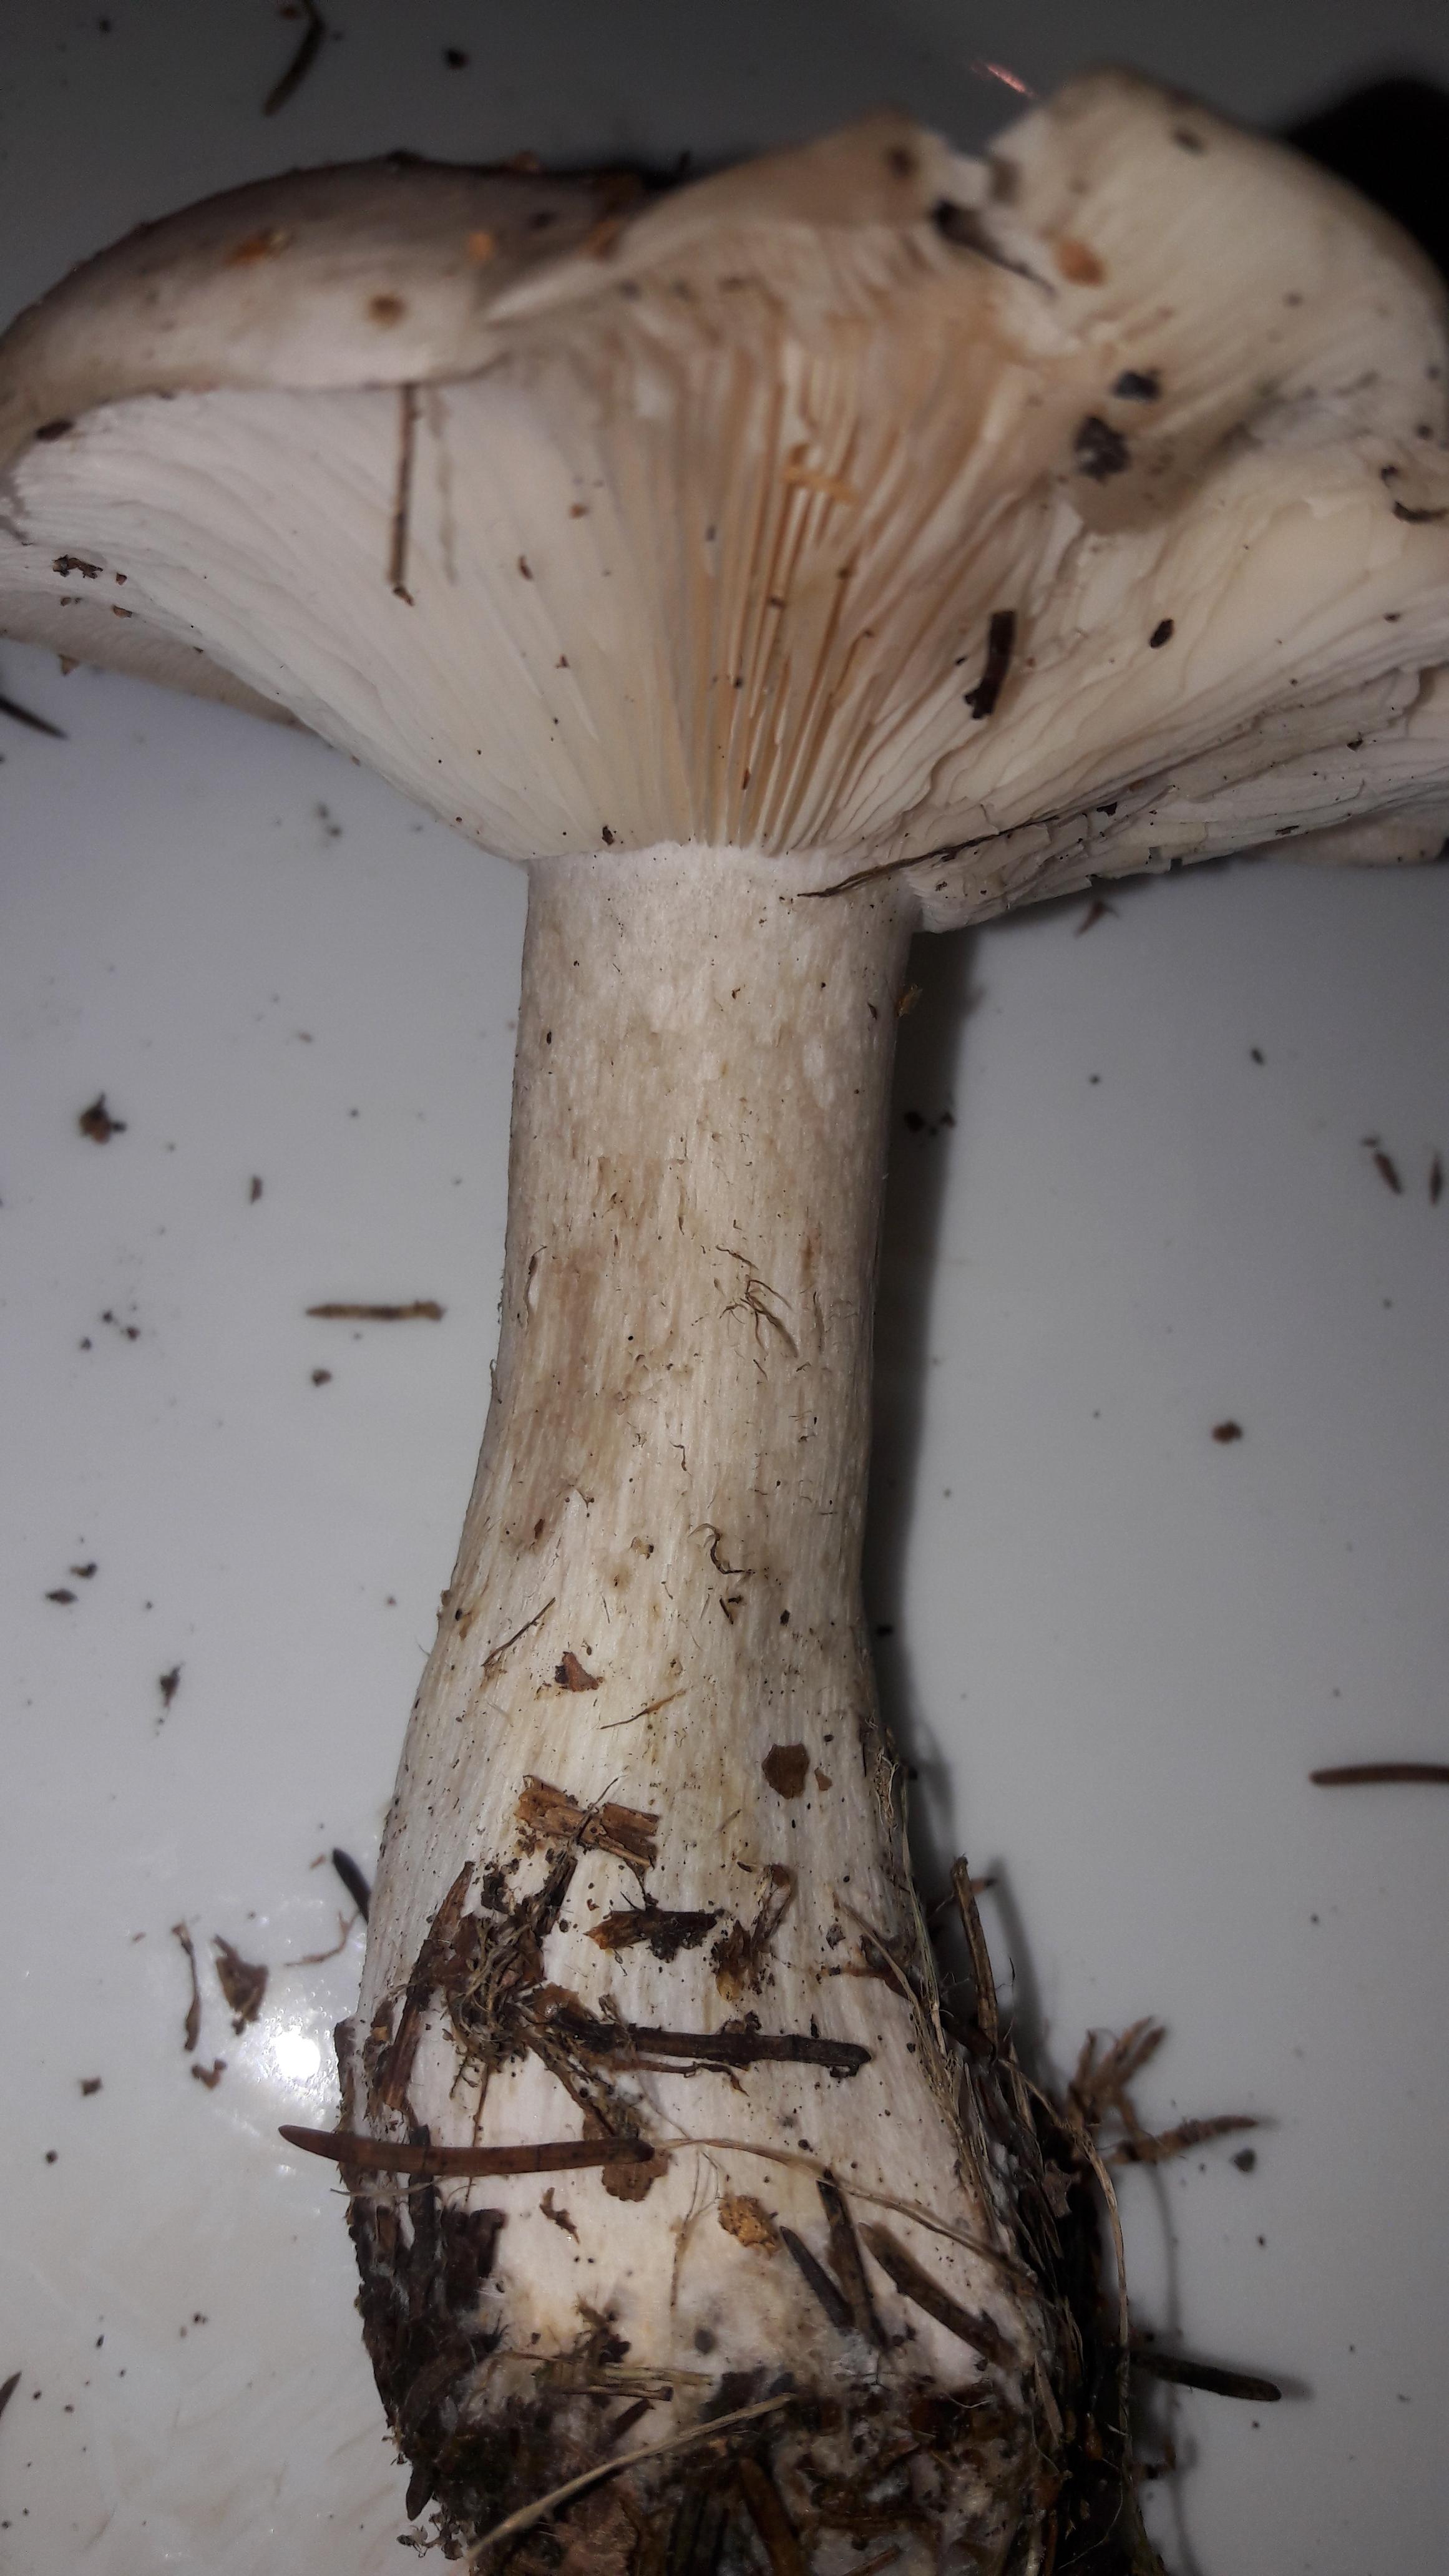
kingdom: Fungi
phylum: Basidiomycota
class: Agaricomycetes
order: Agaricales
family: Tricholomataceae
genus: Clitocybe
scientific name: Clitocybe nebularis
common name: tåge-tragthat
